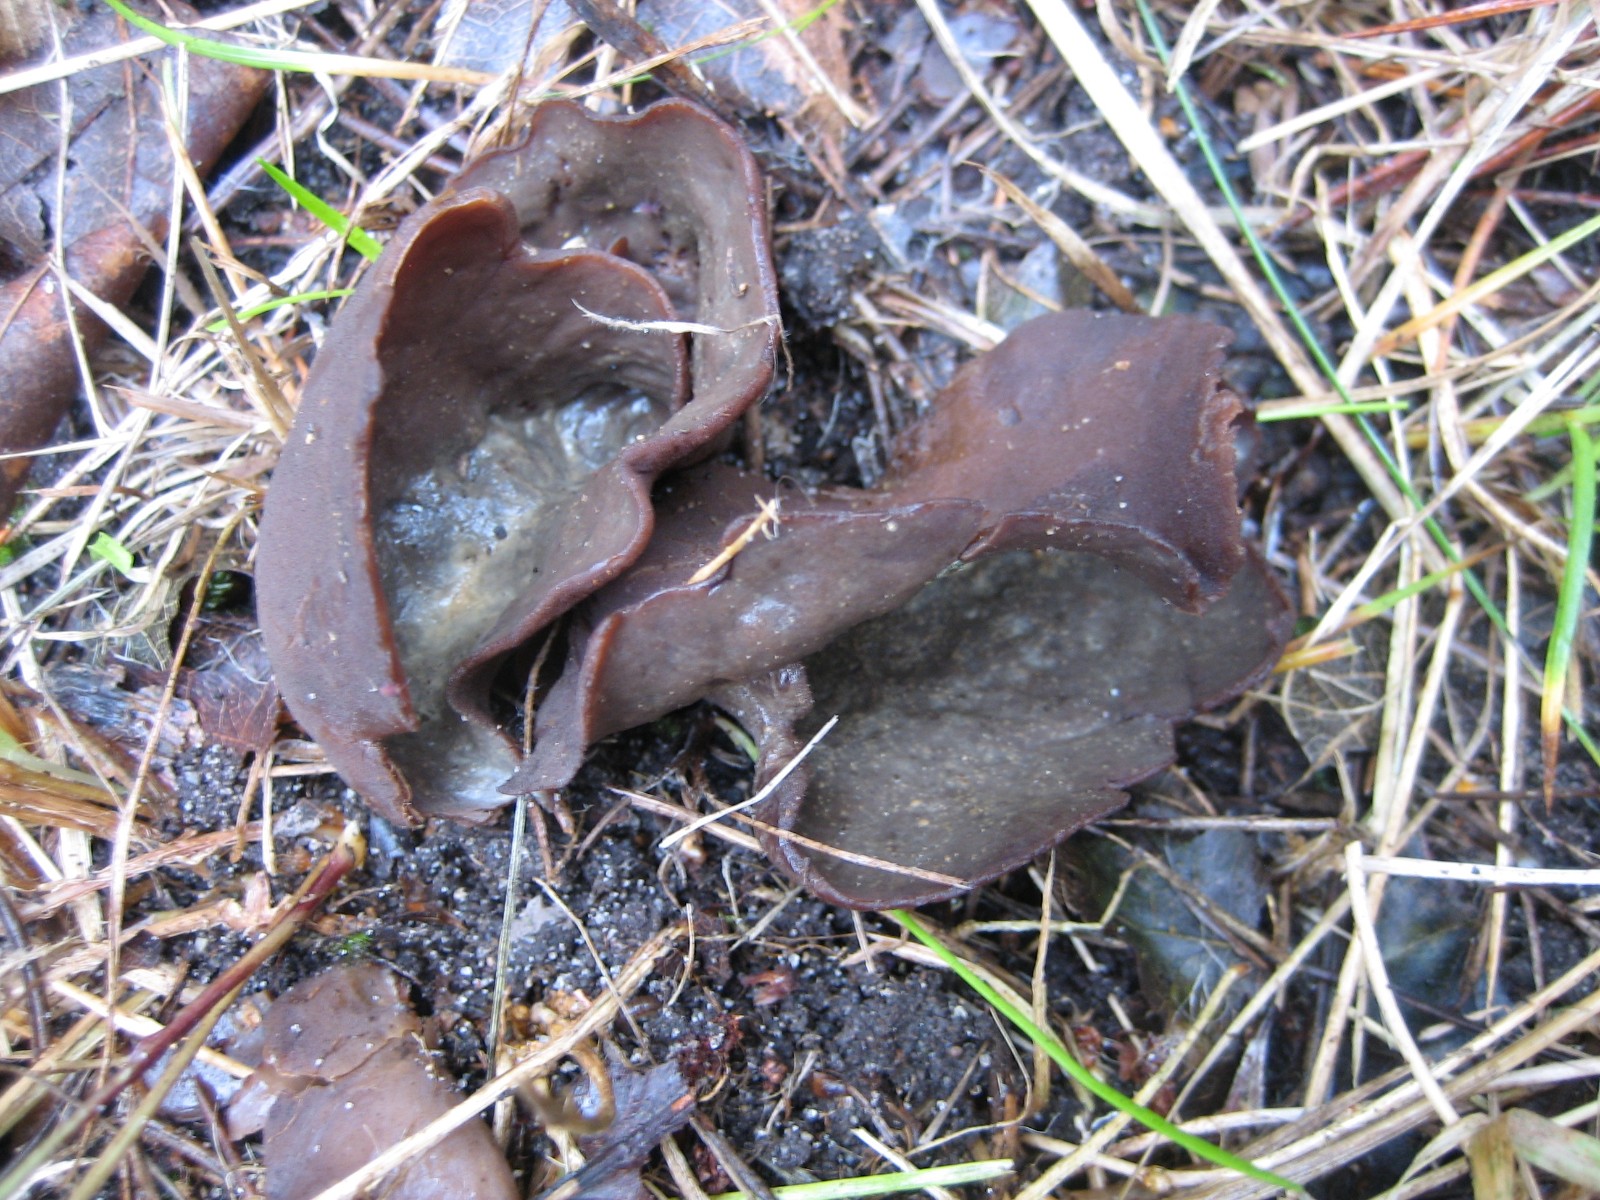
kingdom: Fungi
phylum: Ascomycota
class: Pezizomycetes
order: Pezizales
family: Otideaceae
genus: Otidea
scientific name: Otidea bufonia
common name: brun ørebæger
